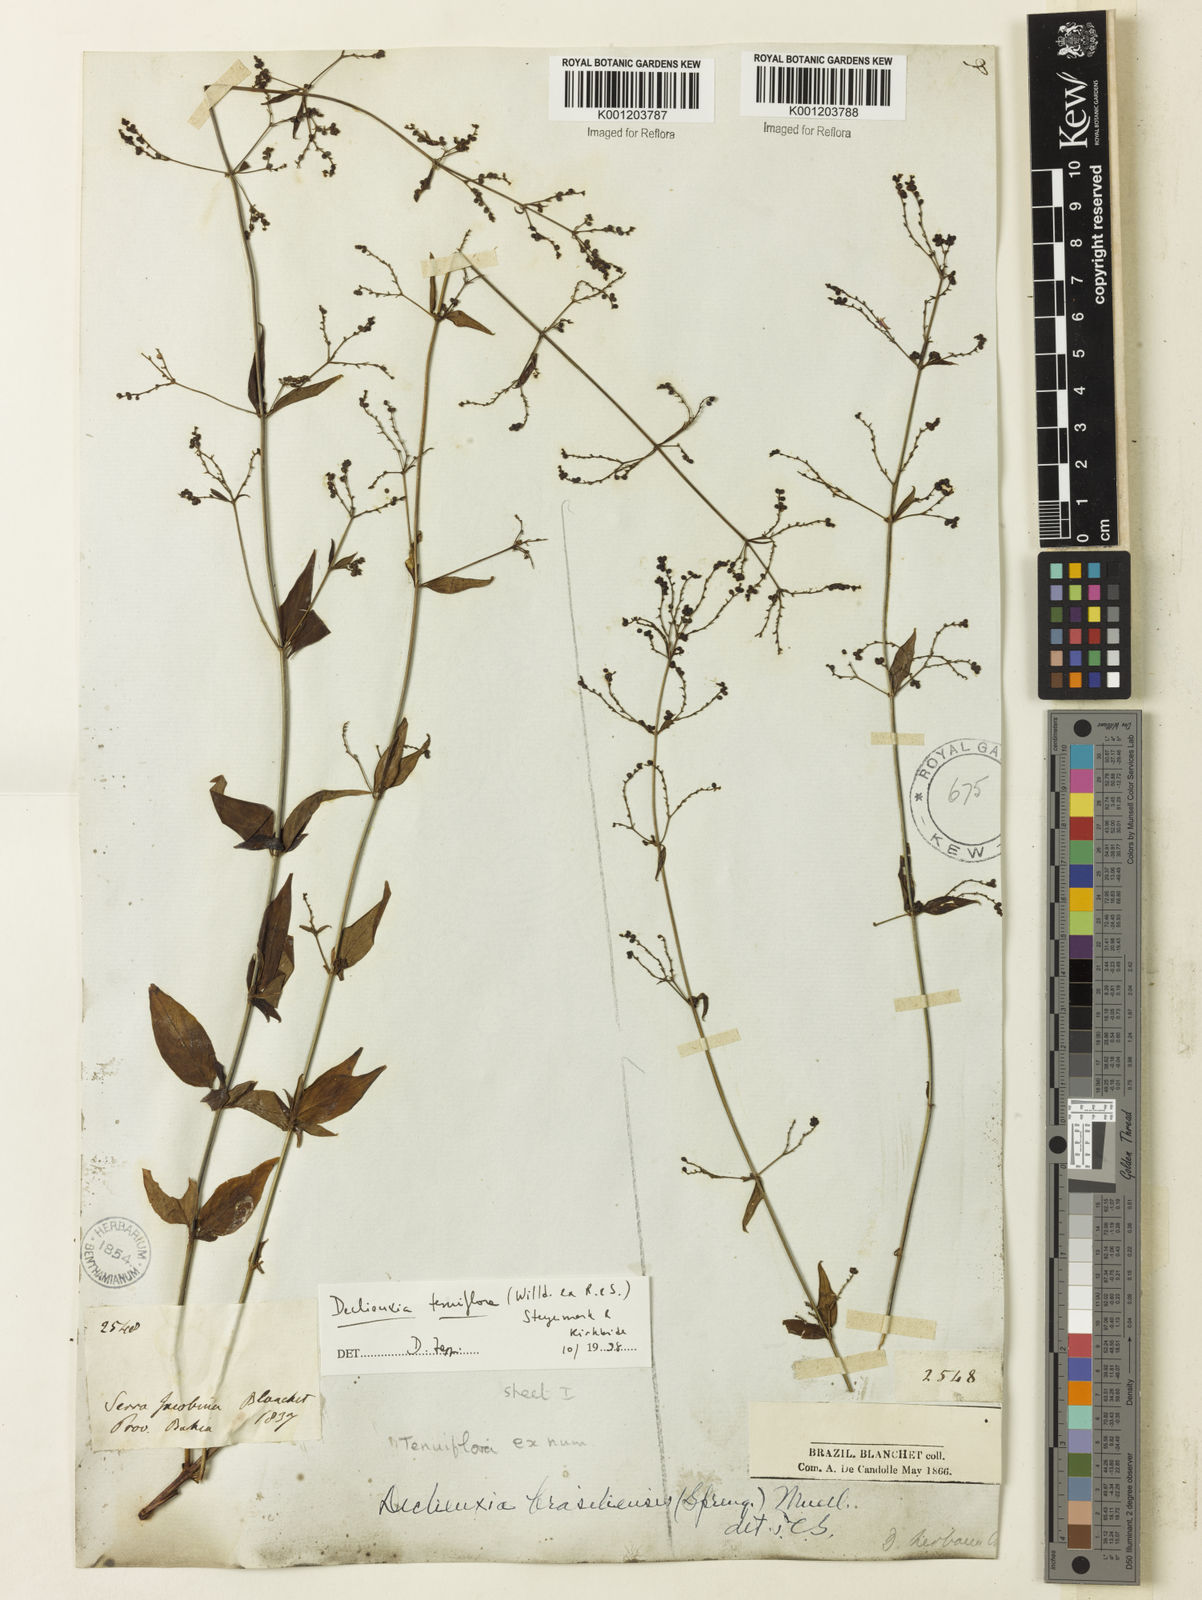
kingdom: Plantae
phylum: Tracheophyta
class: Magnoliopsida
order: Gentianales
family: Rubiaceae
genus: Declieuxia
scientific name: Declieuxia tenuiflora
